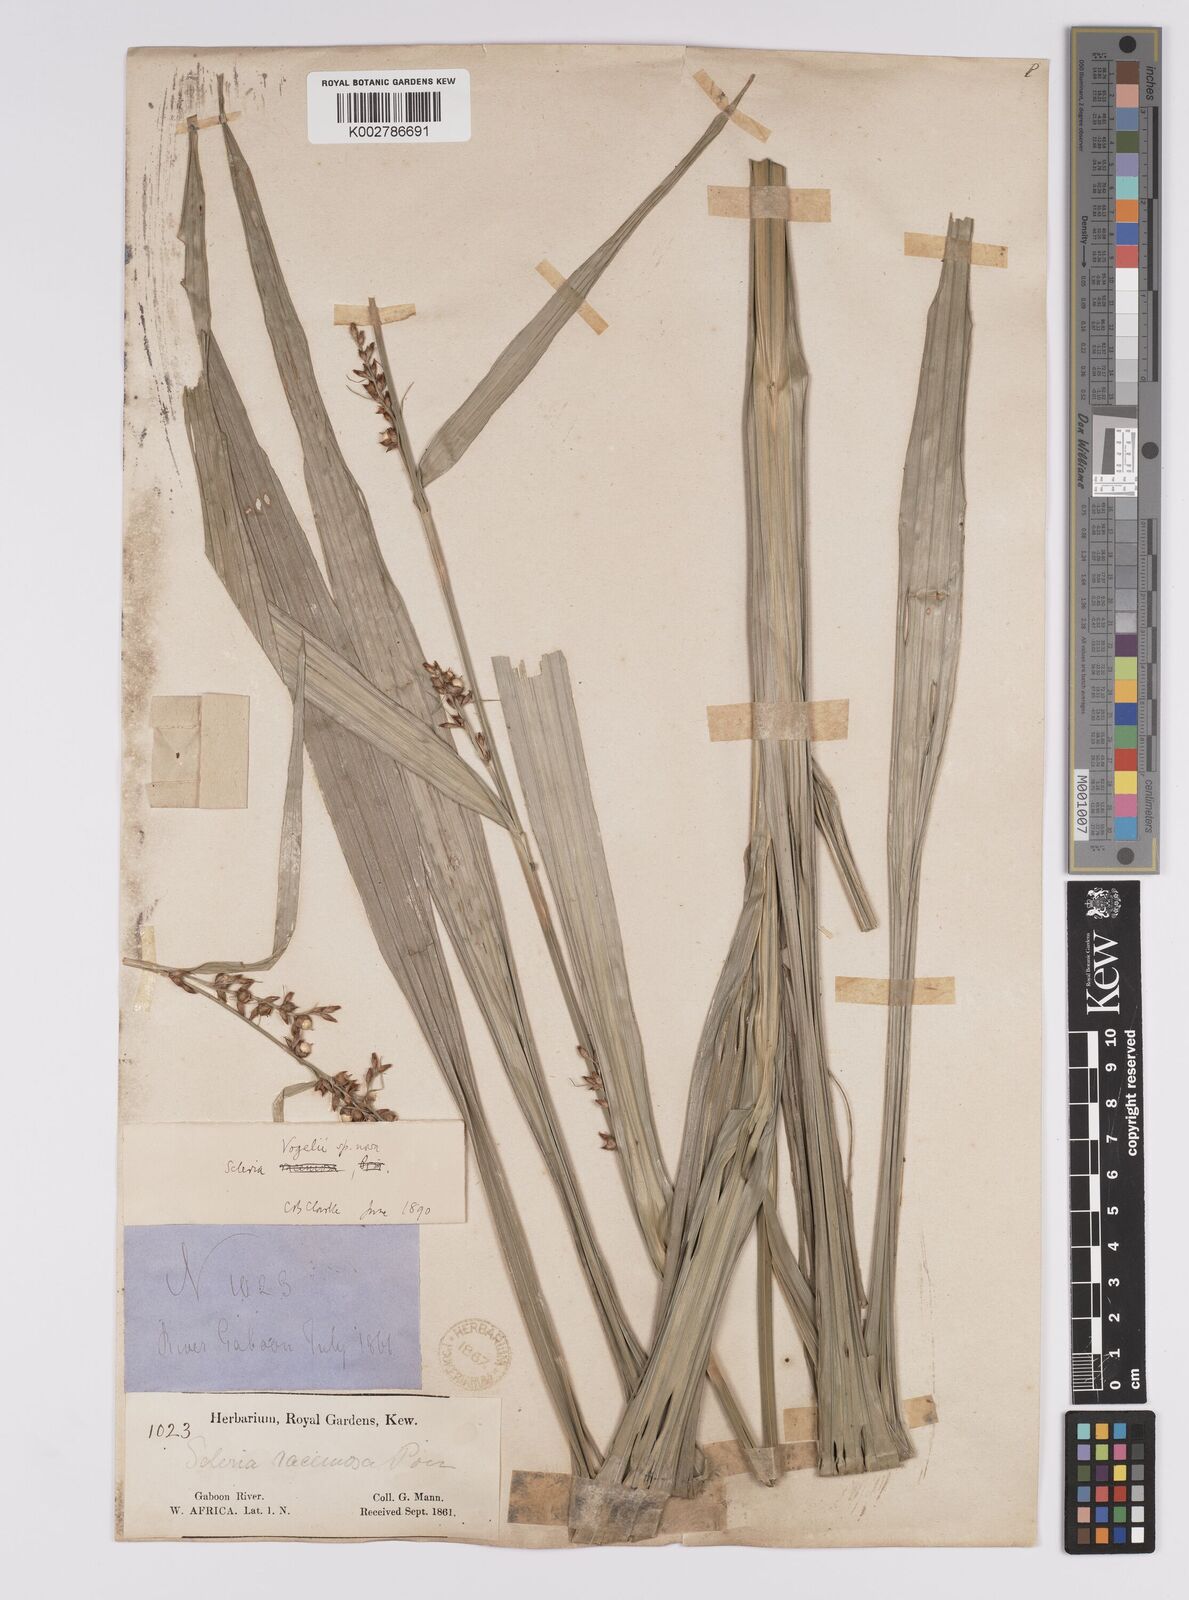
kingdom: Plantae
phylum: Tracheophyta
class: Liliopsida
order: Poales
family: Cyperaceae
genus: Scleria
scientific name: Scleria vogelii
